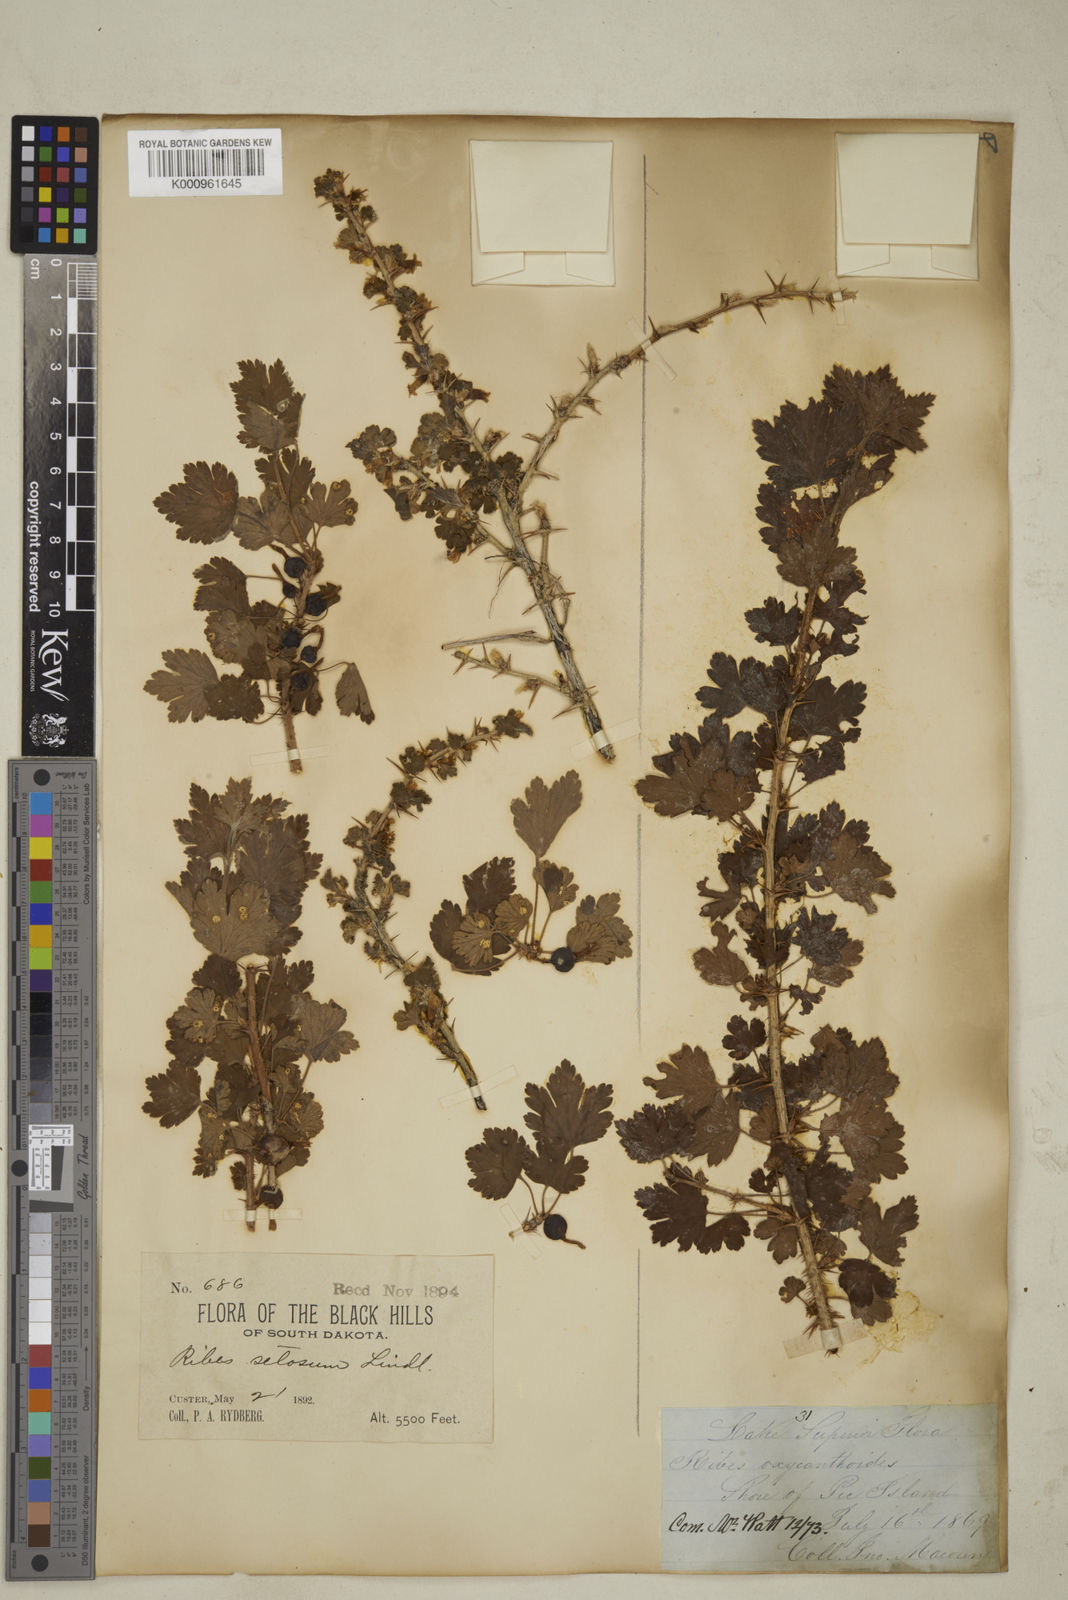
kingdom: Plantae
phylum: Tracheophyta
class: Magnoliopsida
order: Saxifragales
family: Grossulariaceae
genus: Ribes
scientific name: Ribes oxyacanthoides
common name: Northern gooseberry
